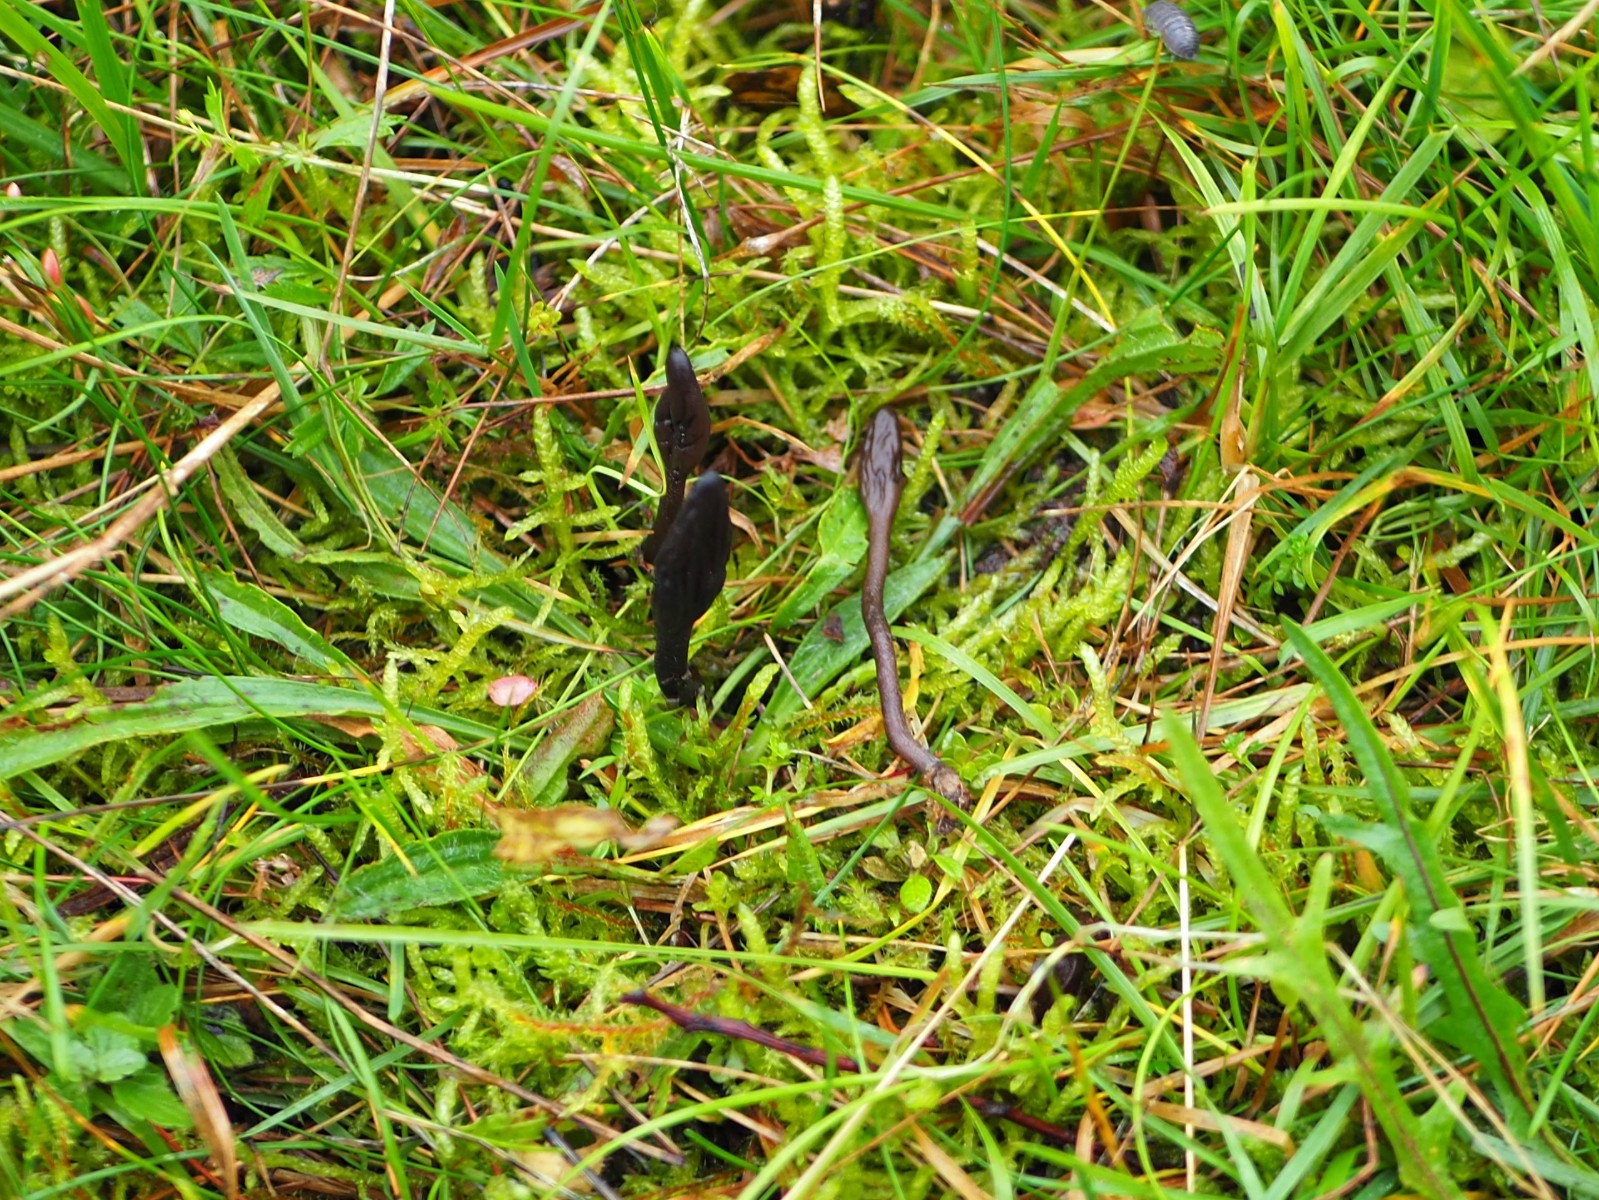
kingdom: Fungi
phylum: Ascomycota
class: Geoglossomycetes
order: Geoglossales
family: Geoglossaceae
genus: Geoglossum
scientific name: Geoglossum fallax
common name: småskællet jordtunge
